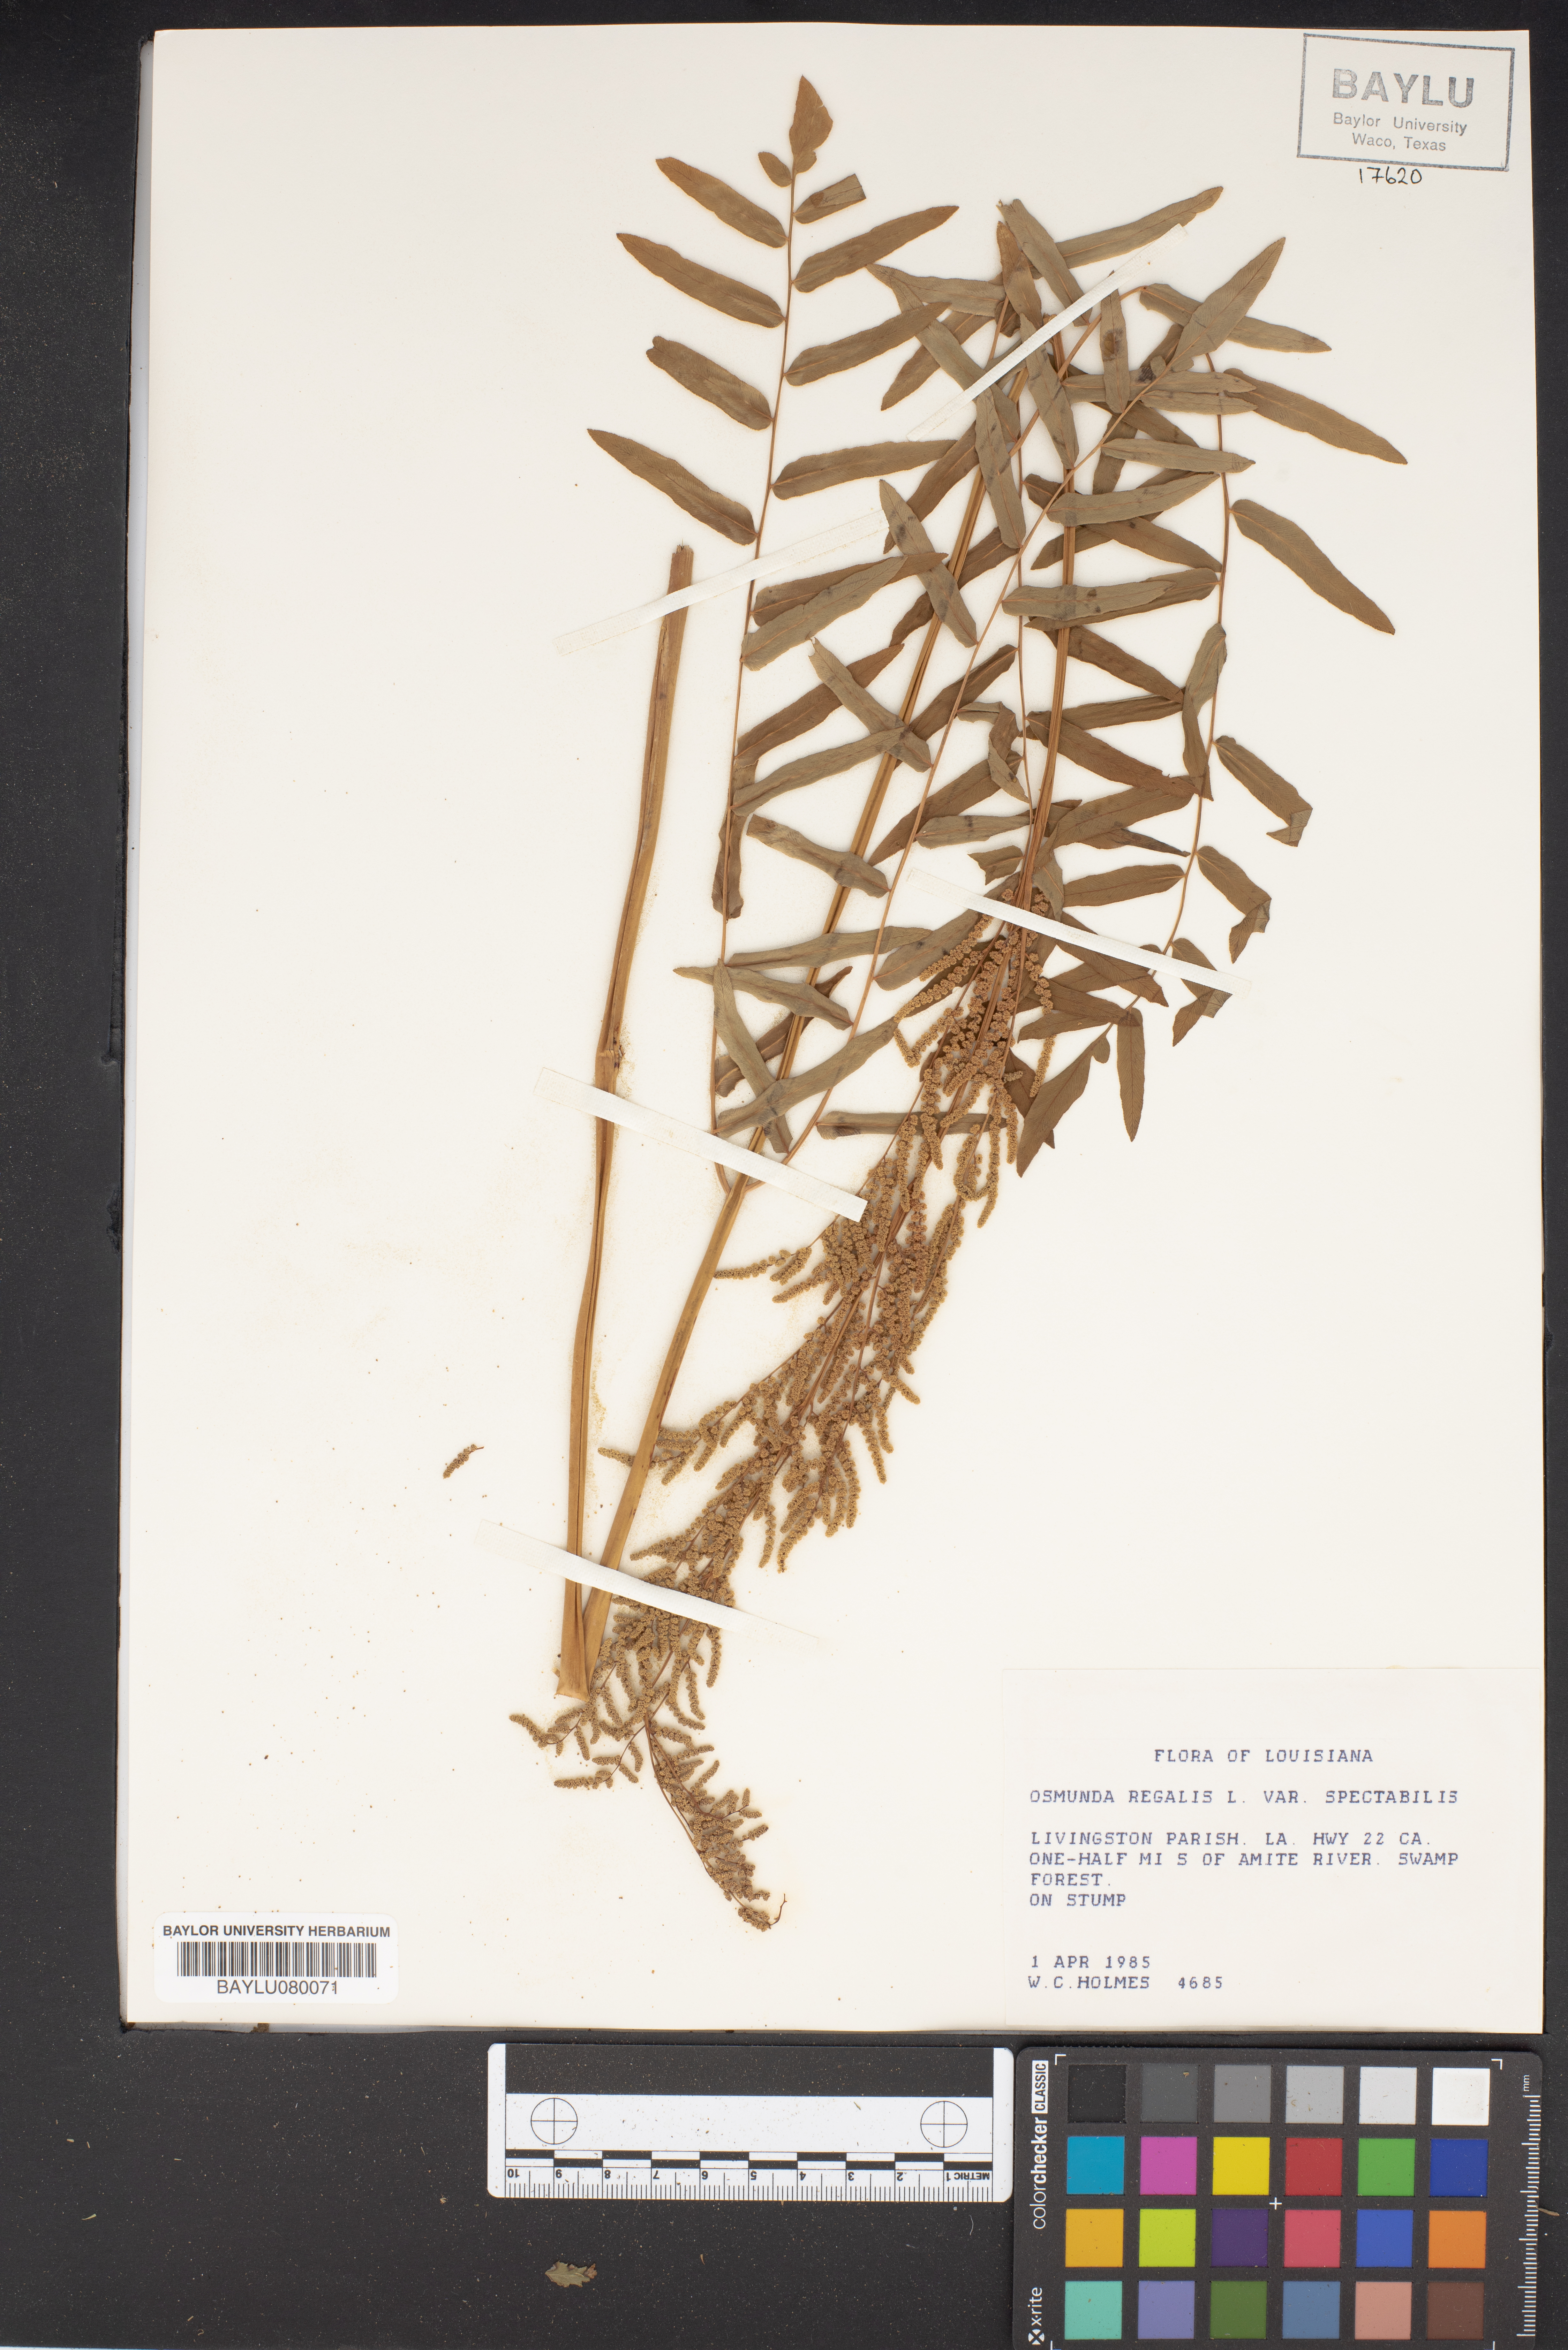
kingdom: Plantae
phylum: Tracheophyta
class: Polypodiopsida
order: Osmundales
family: Osmundaceae
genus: Osmunda
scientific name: Osmunda spectabilis
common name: American royal fern
